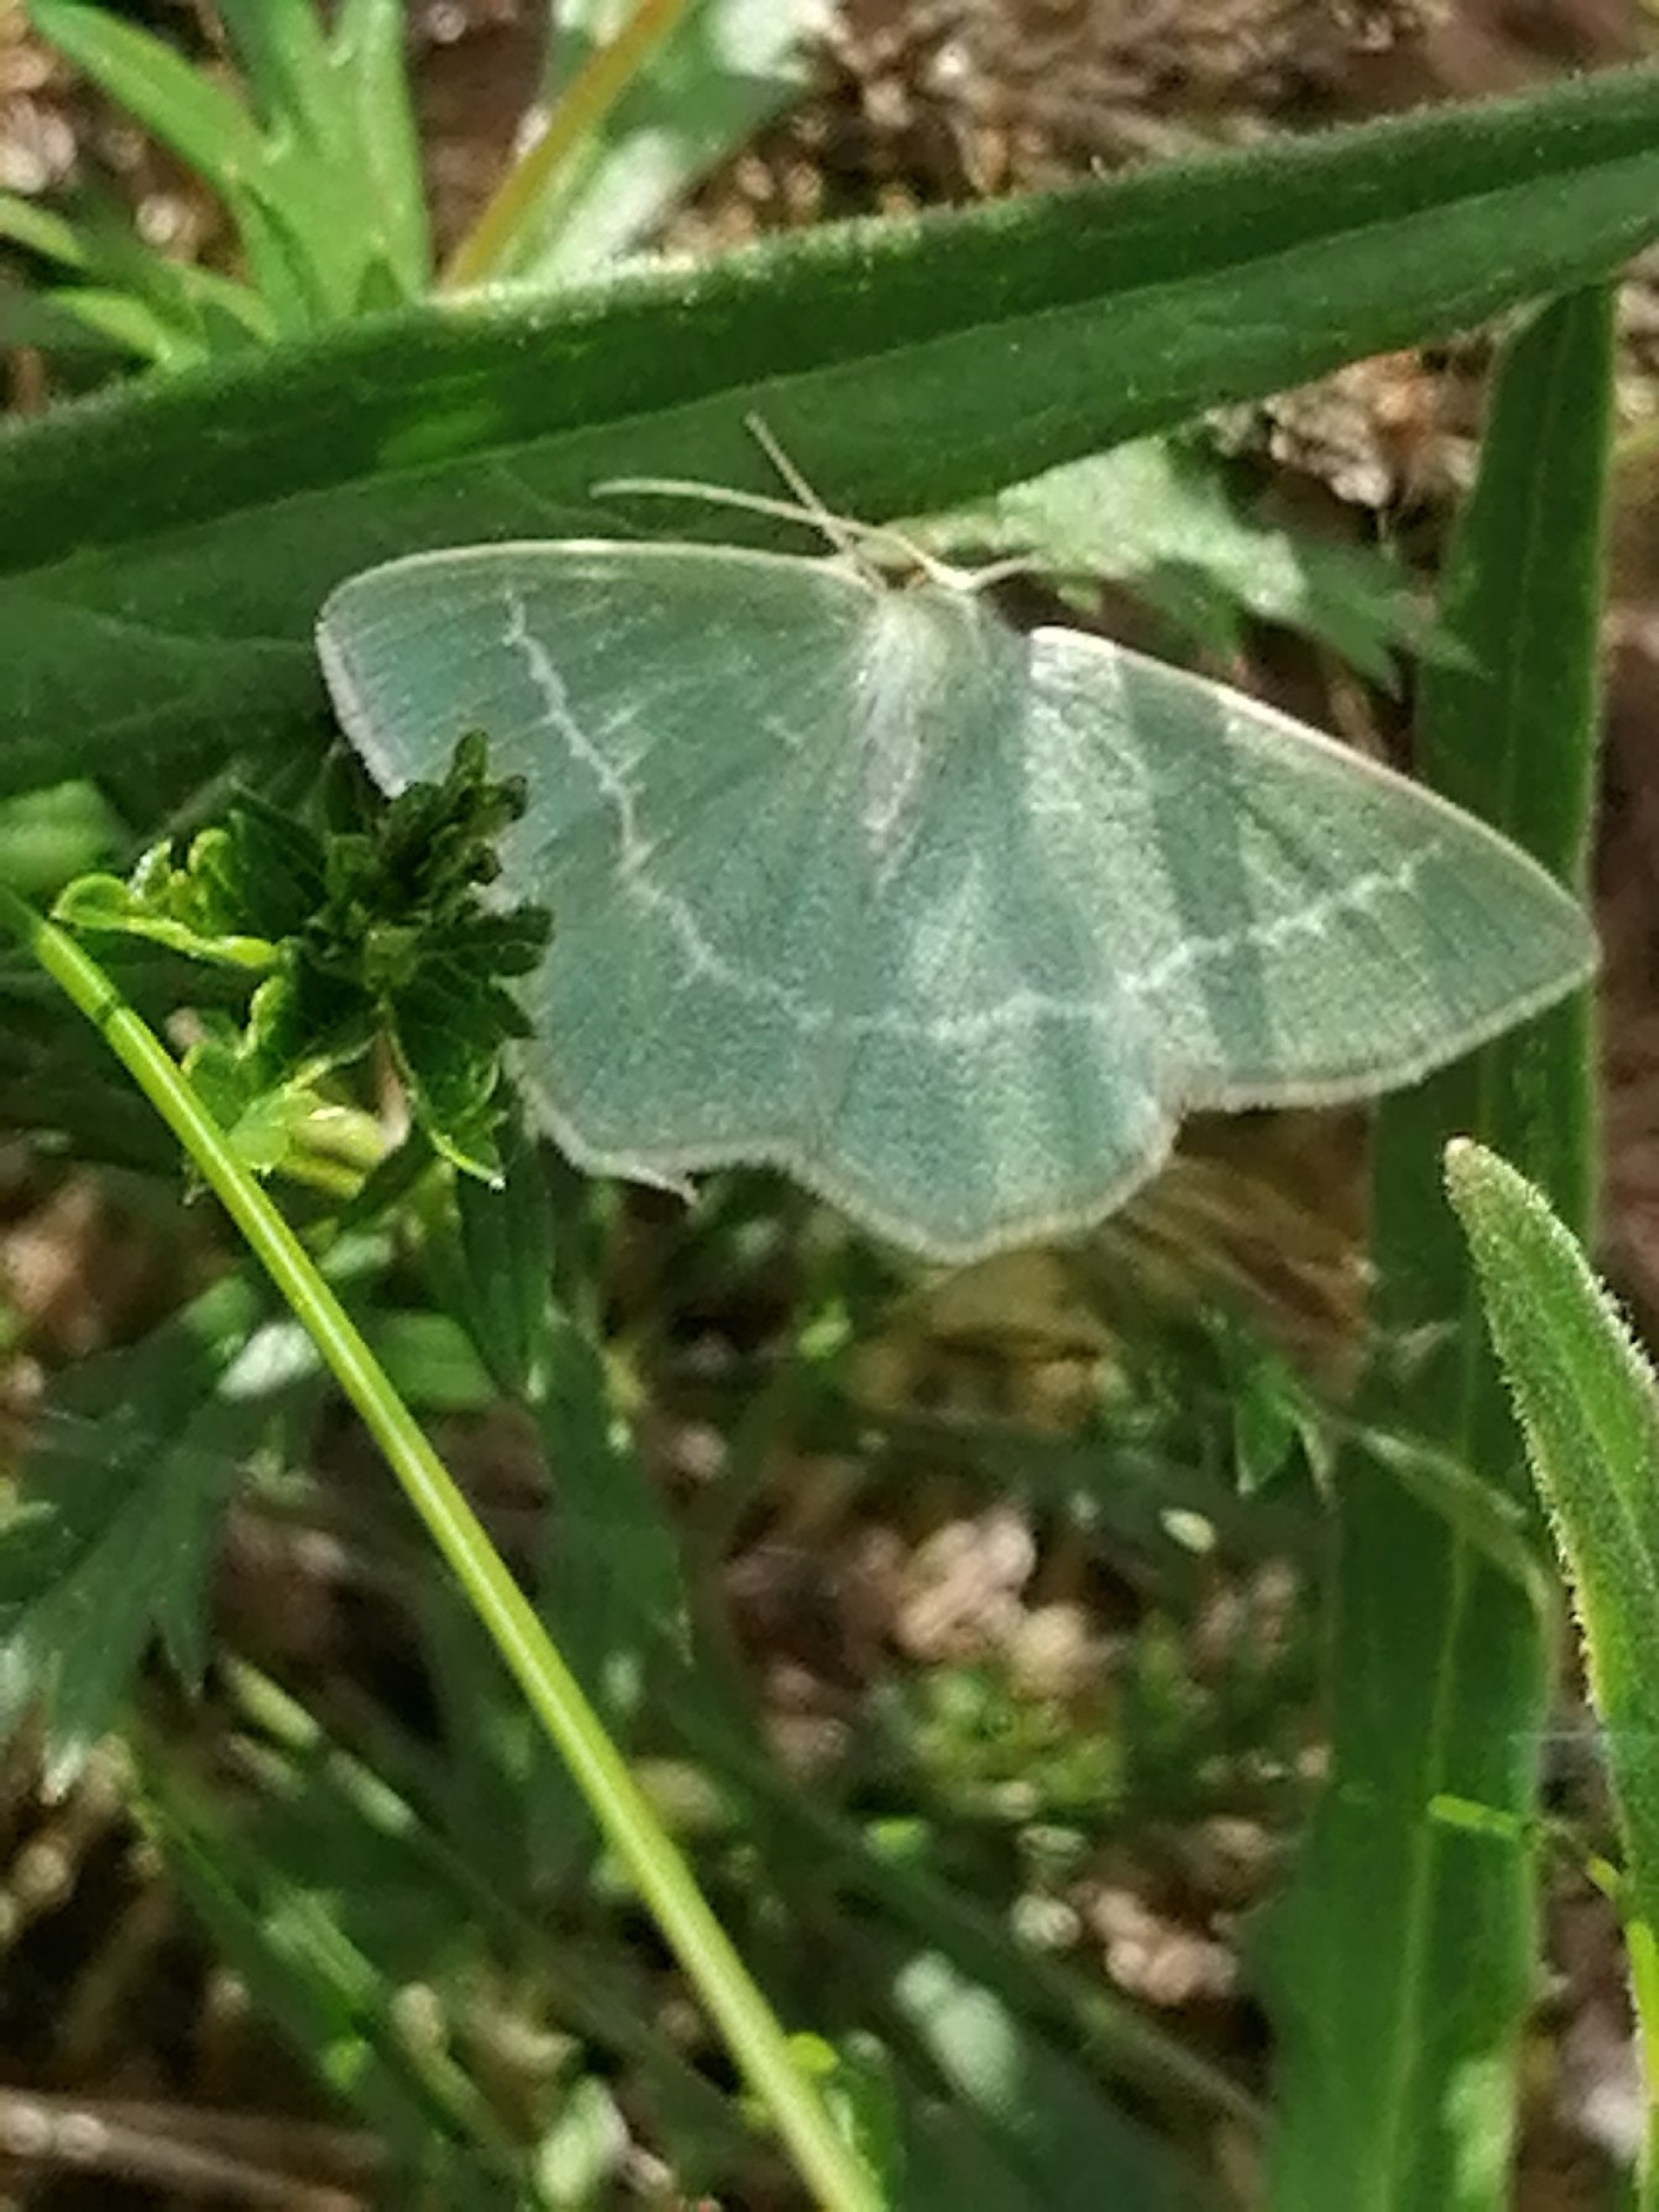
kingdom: Animalia
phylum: Arthropoda
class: Insecta
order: Lepidoptera
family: Geometridae
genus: Geometra
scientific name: Geometra papilionaria
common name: Grøn birkemåler
